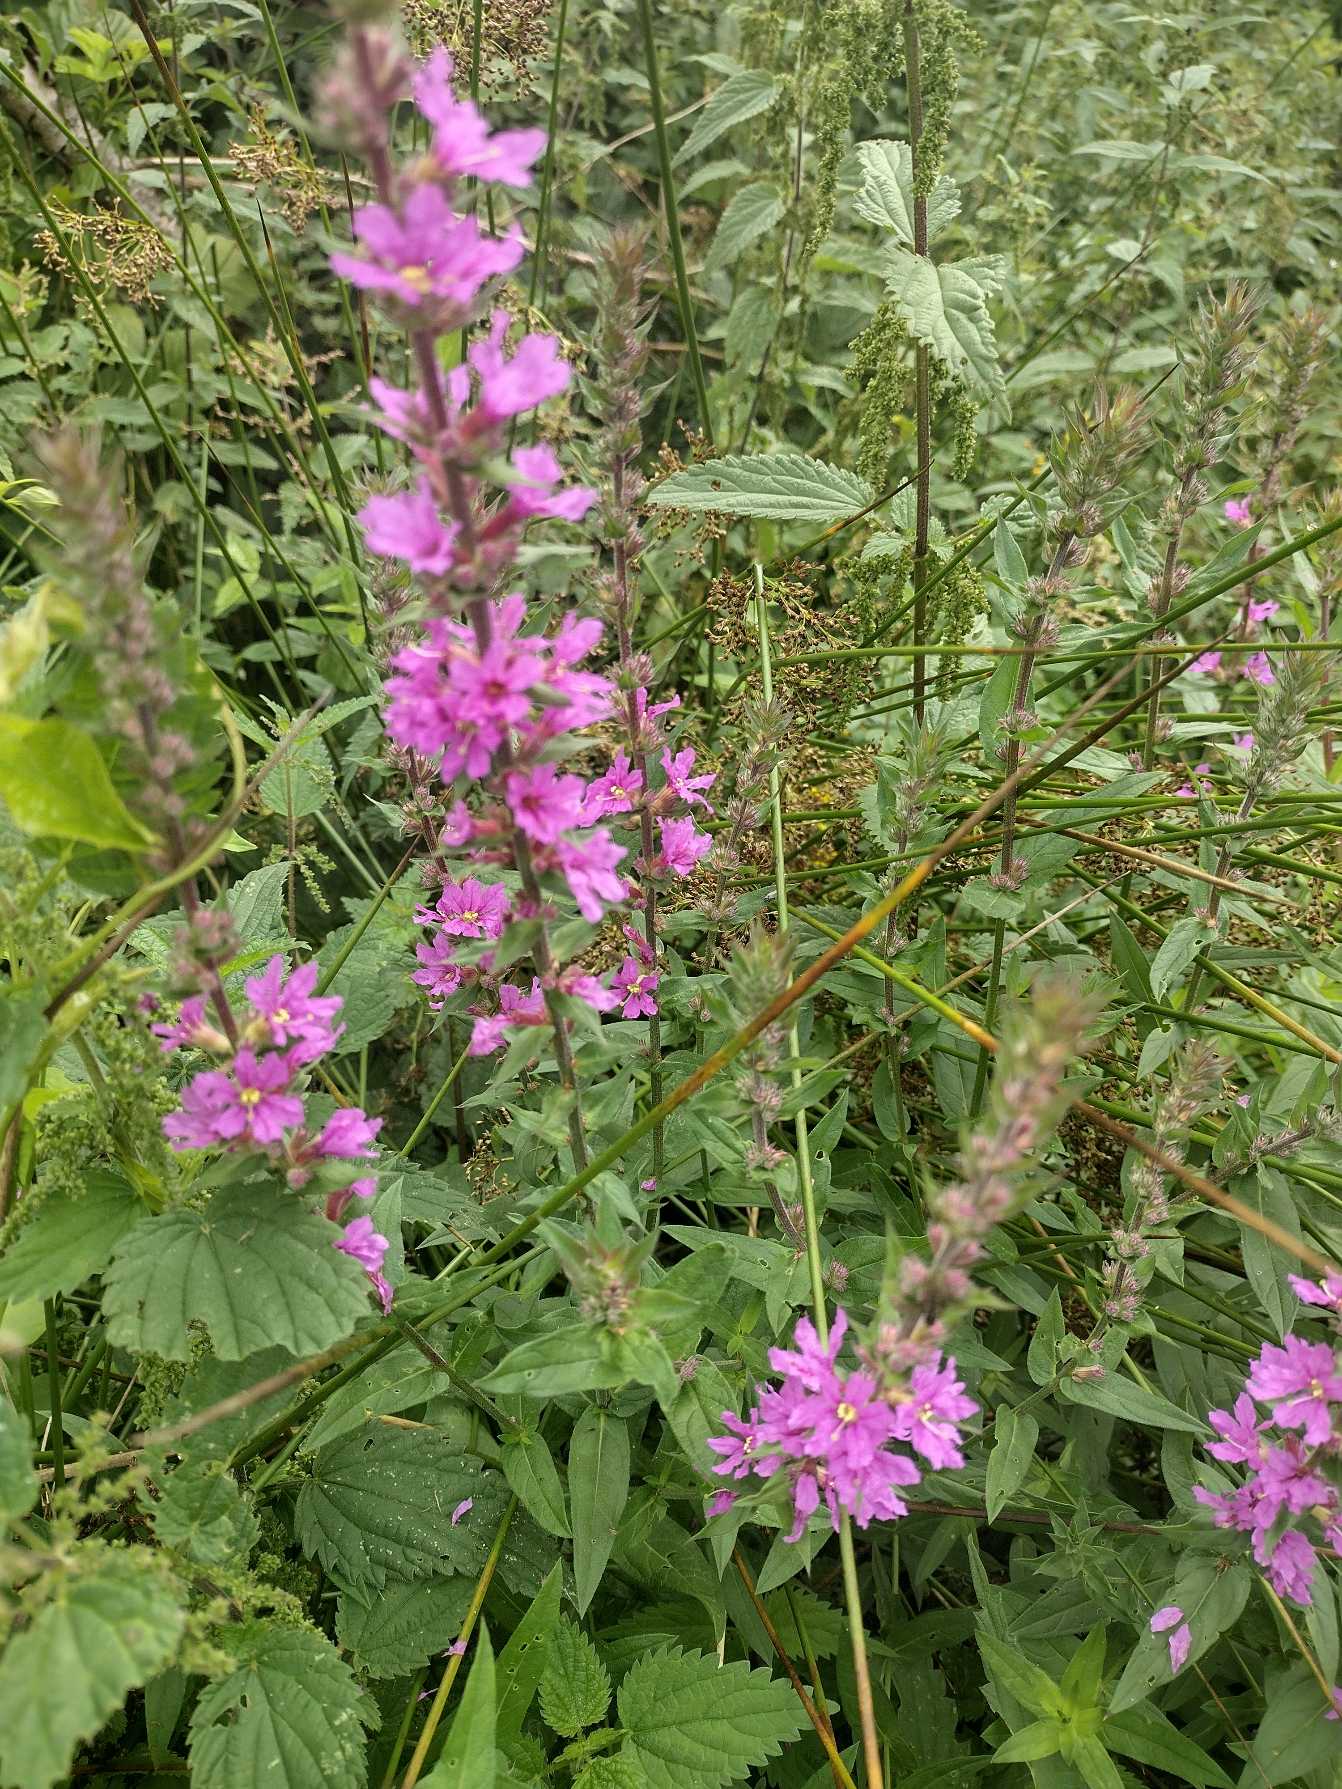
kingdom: Plantae
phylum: Tracheophyta
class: Magnoliopsida
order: Myrtales
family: Lythraceae
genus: Lythrum
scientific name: Lythrum salicaria
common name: Kattehale
